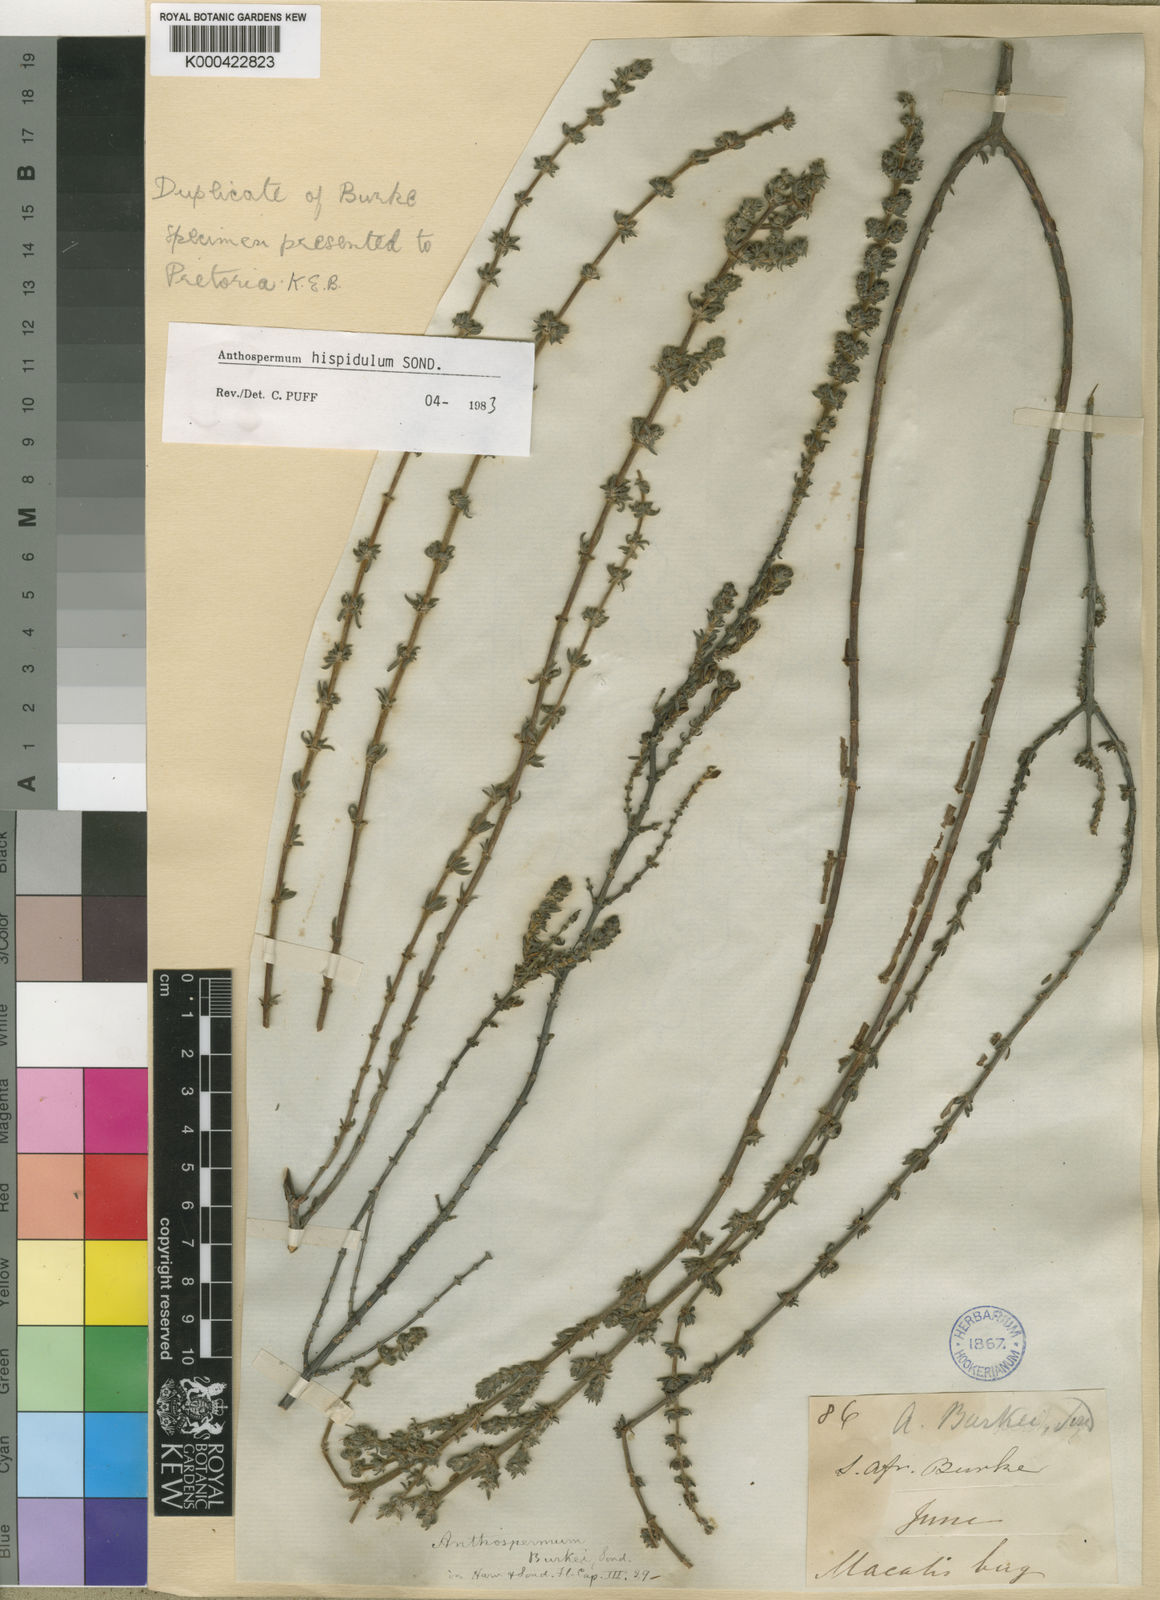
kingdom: Plantae
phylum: Tracheophyta
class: Magnoliopsida
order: Gentianales
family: Rubiaceae
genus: Anthospermum
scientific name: Anthospermum hispidulum
